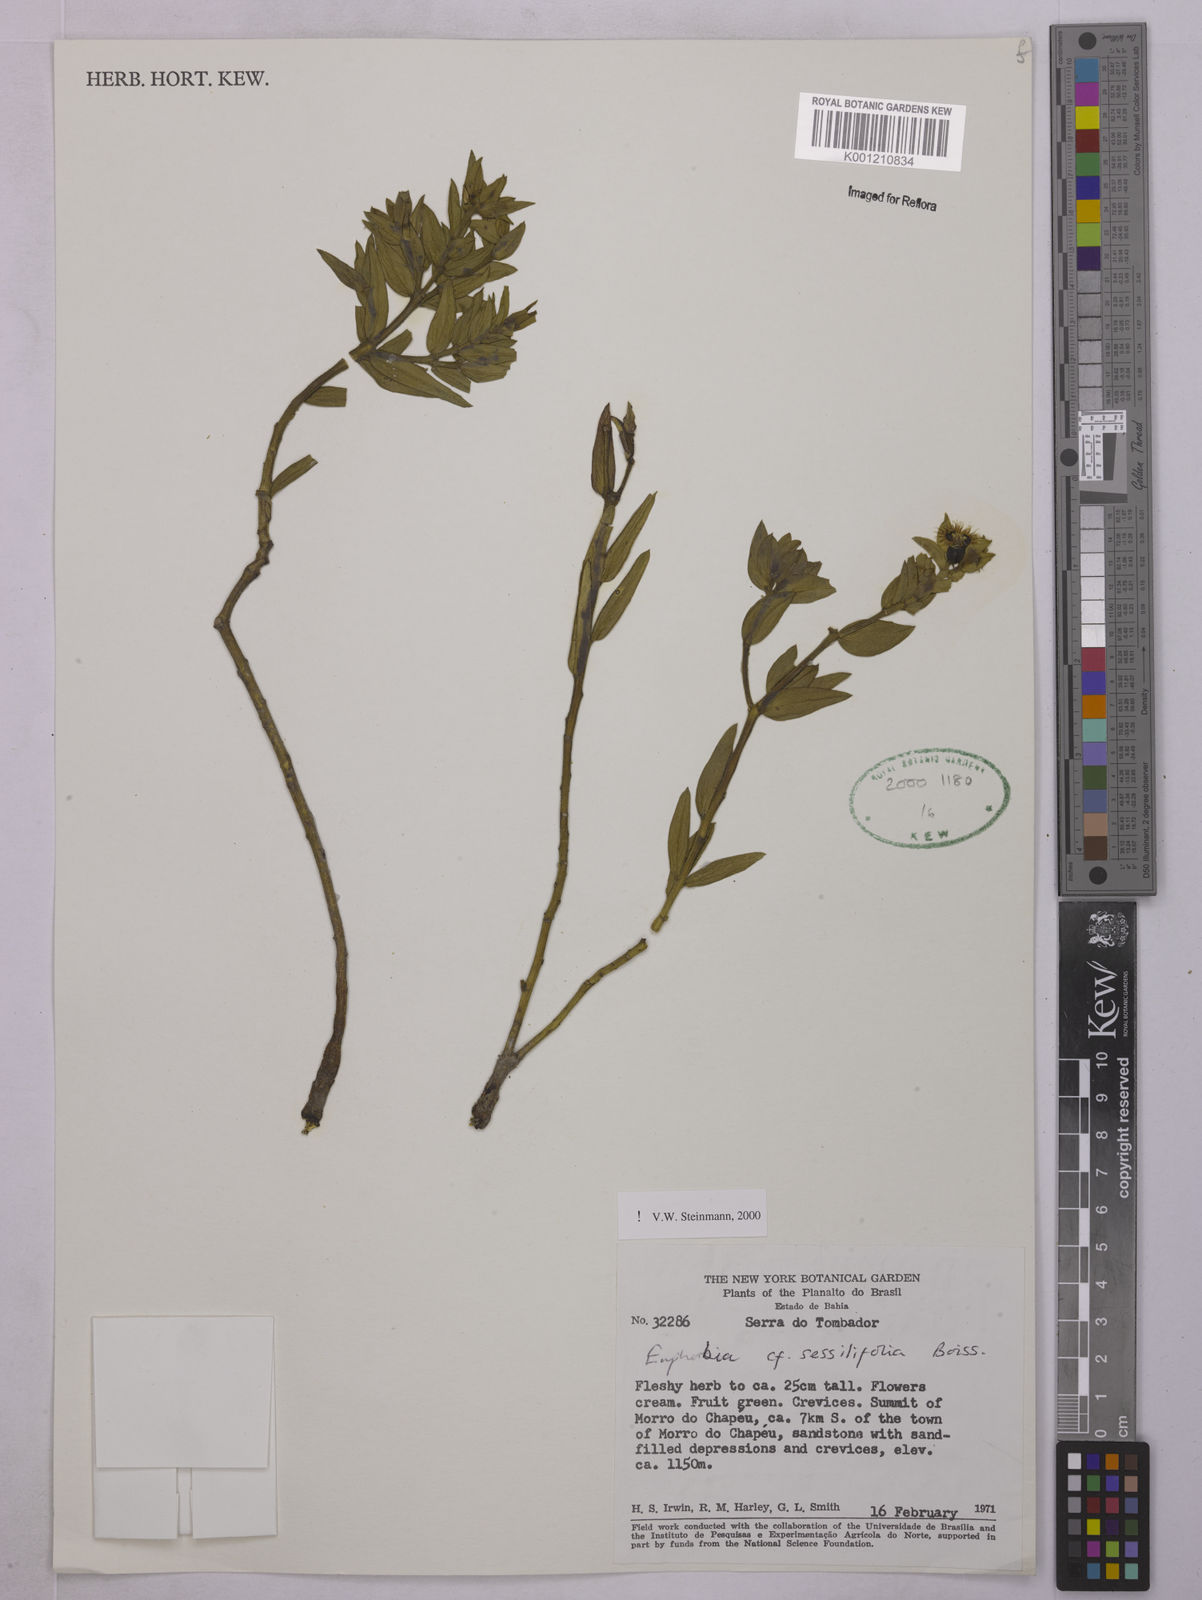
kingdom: Plantae
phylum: Tracheophyta
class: Magnoliopsida
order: Malpighiales
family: Euphorbiaceae
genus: Euphorbia
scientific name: Euphorbia sessilifolia
